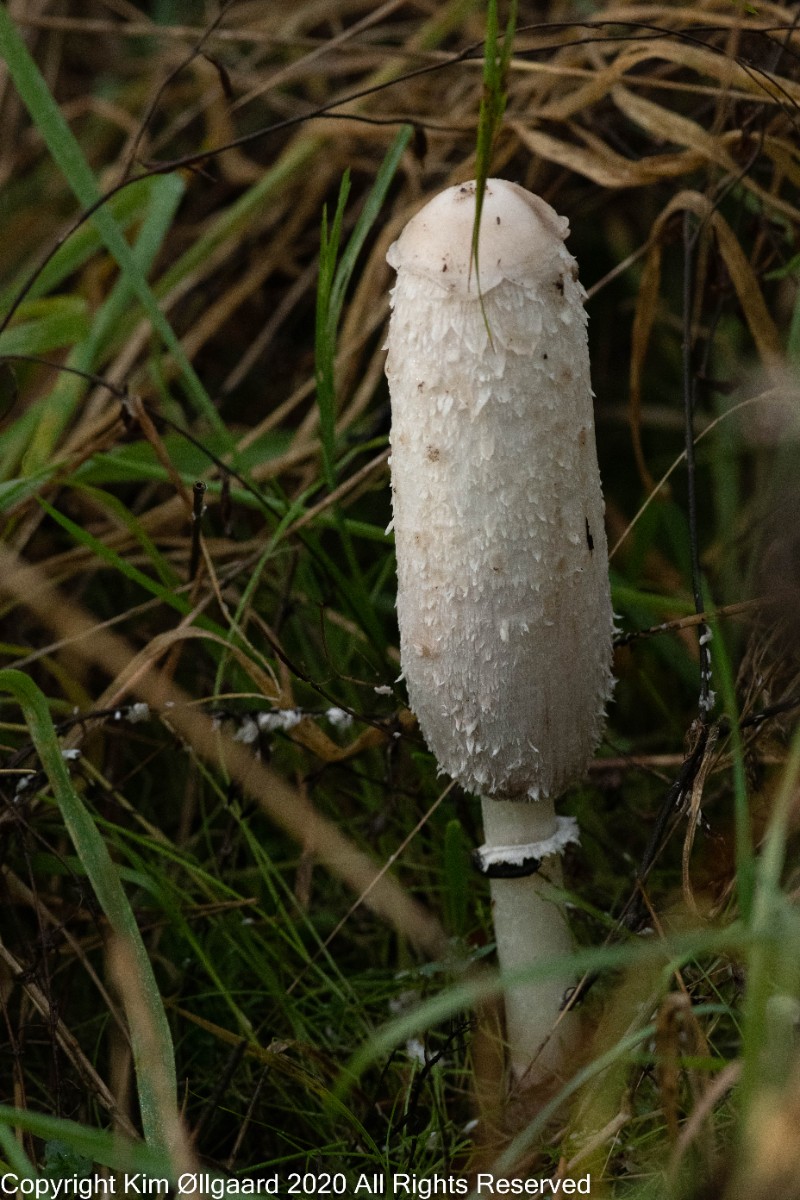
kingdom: Fungi
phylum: Basidiomycota
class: Agaricomycetes
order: Agaricales
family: Agaricaceae
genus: Coprinus
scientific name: Coprinus comatus
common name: stor parykhat
